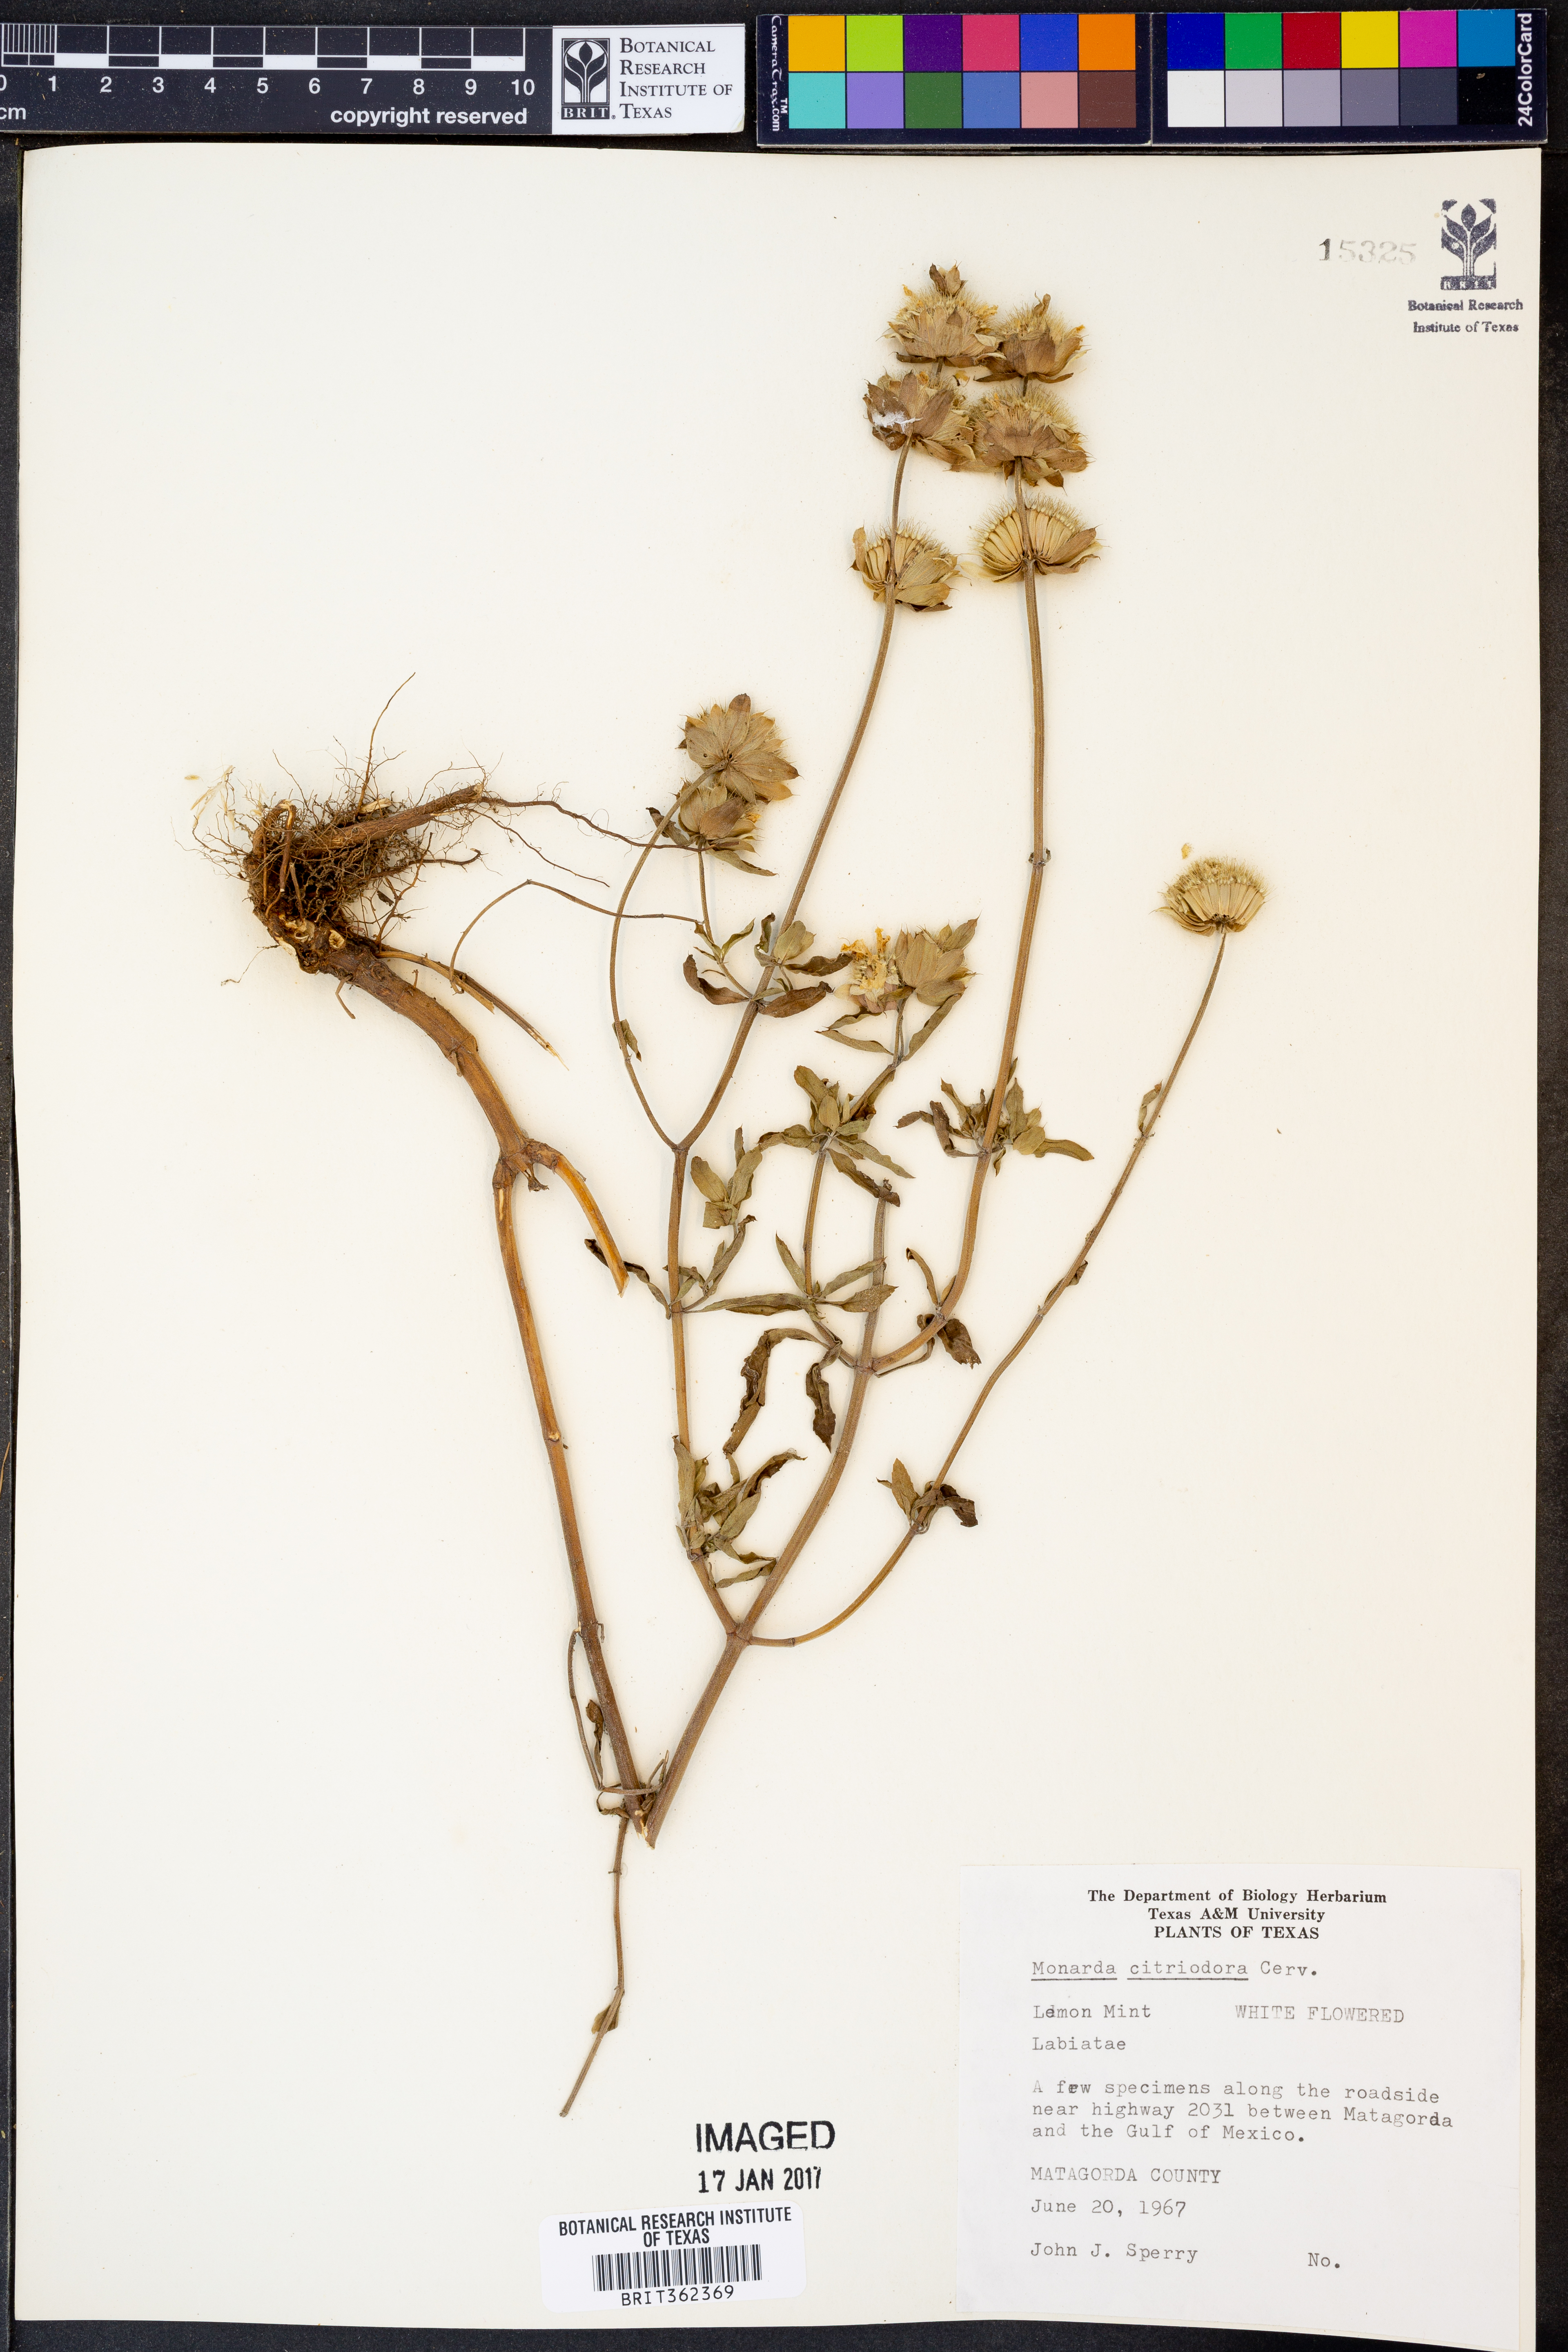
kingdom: Plantae
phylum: Tracheophyta
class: Magnoliopsida
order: Lamiales
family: Lamiaceae
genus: Monarda
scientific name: Monarda citriodora
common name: Lemon beebalm
